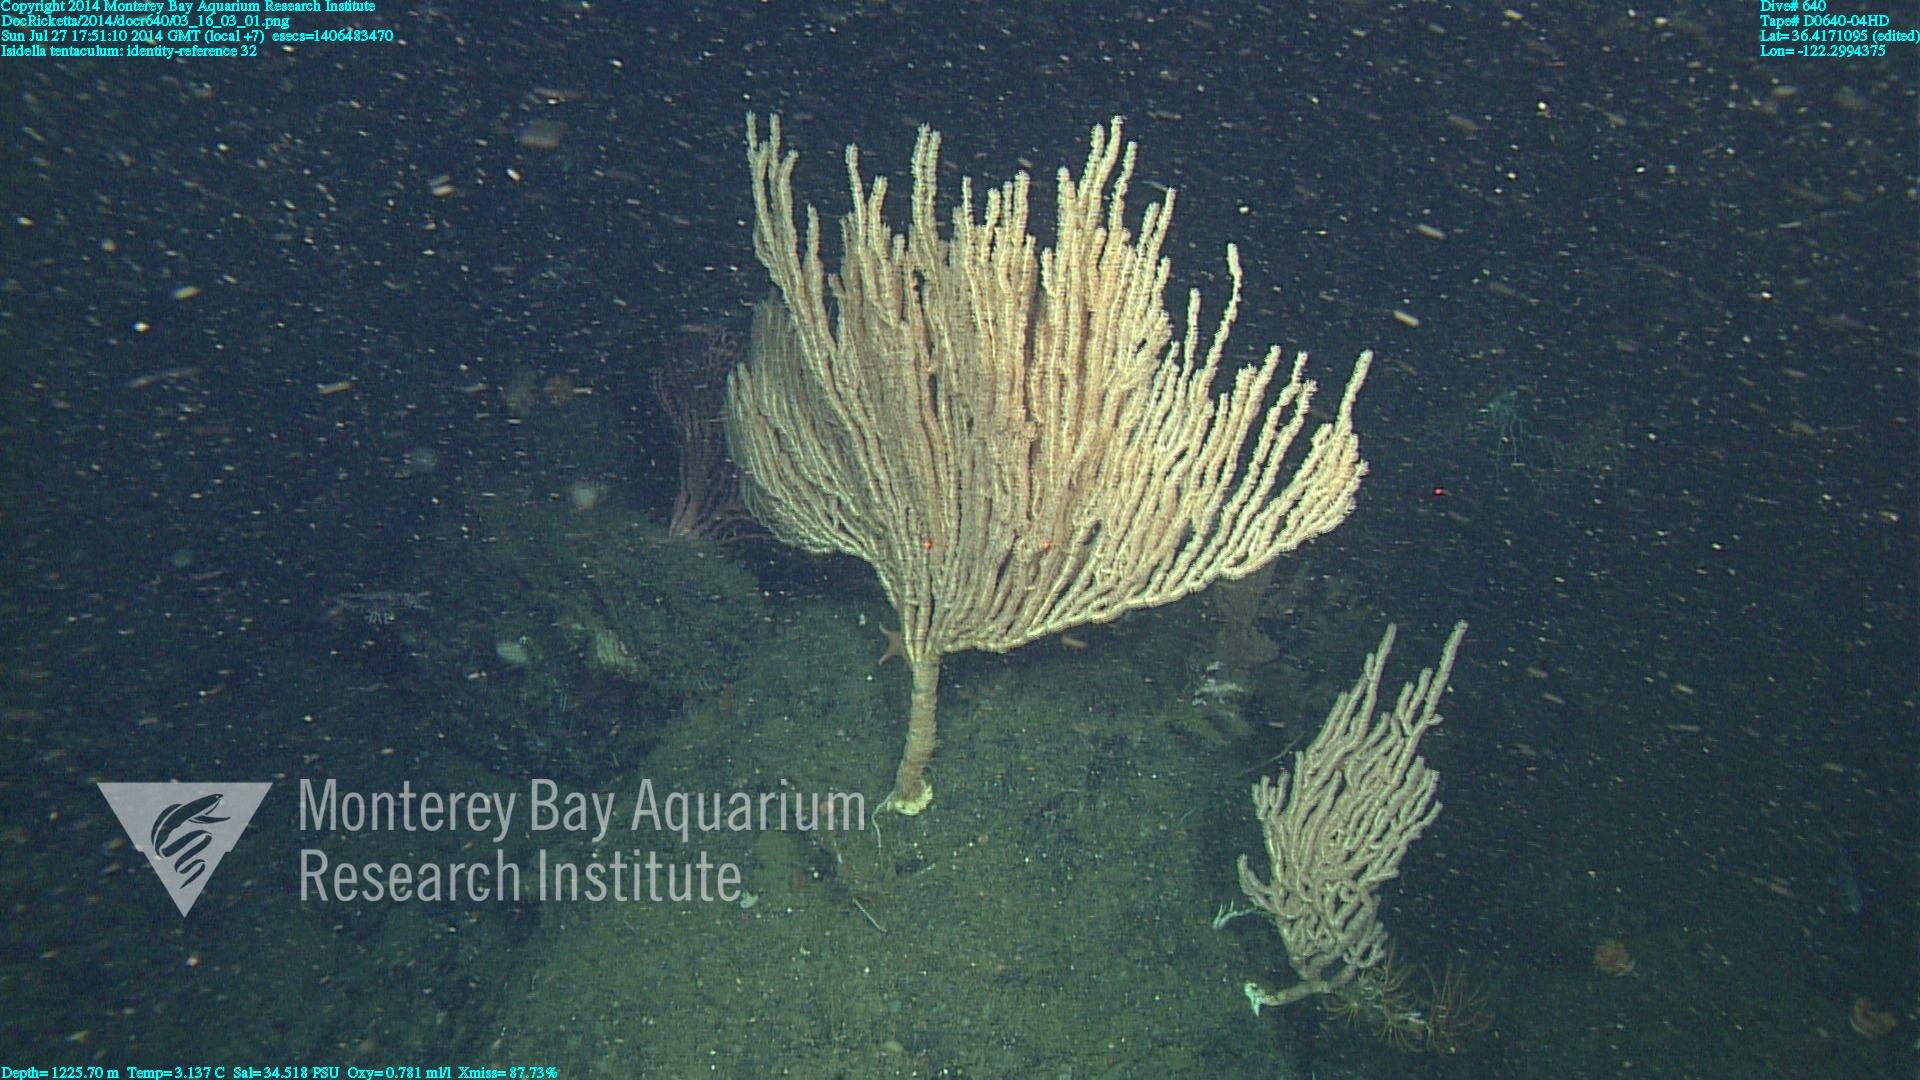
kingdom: Animalia
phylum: Cnidaria
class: Anthozoa
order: Scleralcyonacea
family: Keratoisididae
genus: Isidella
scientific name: Isidella tentaculum
